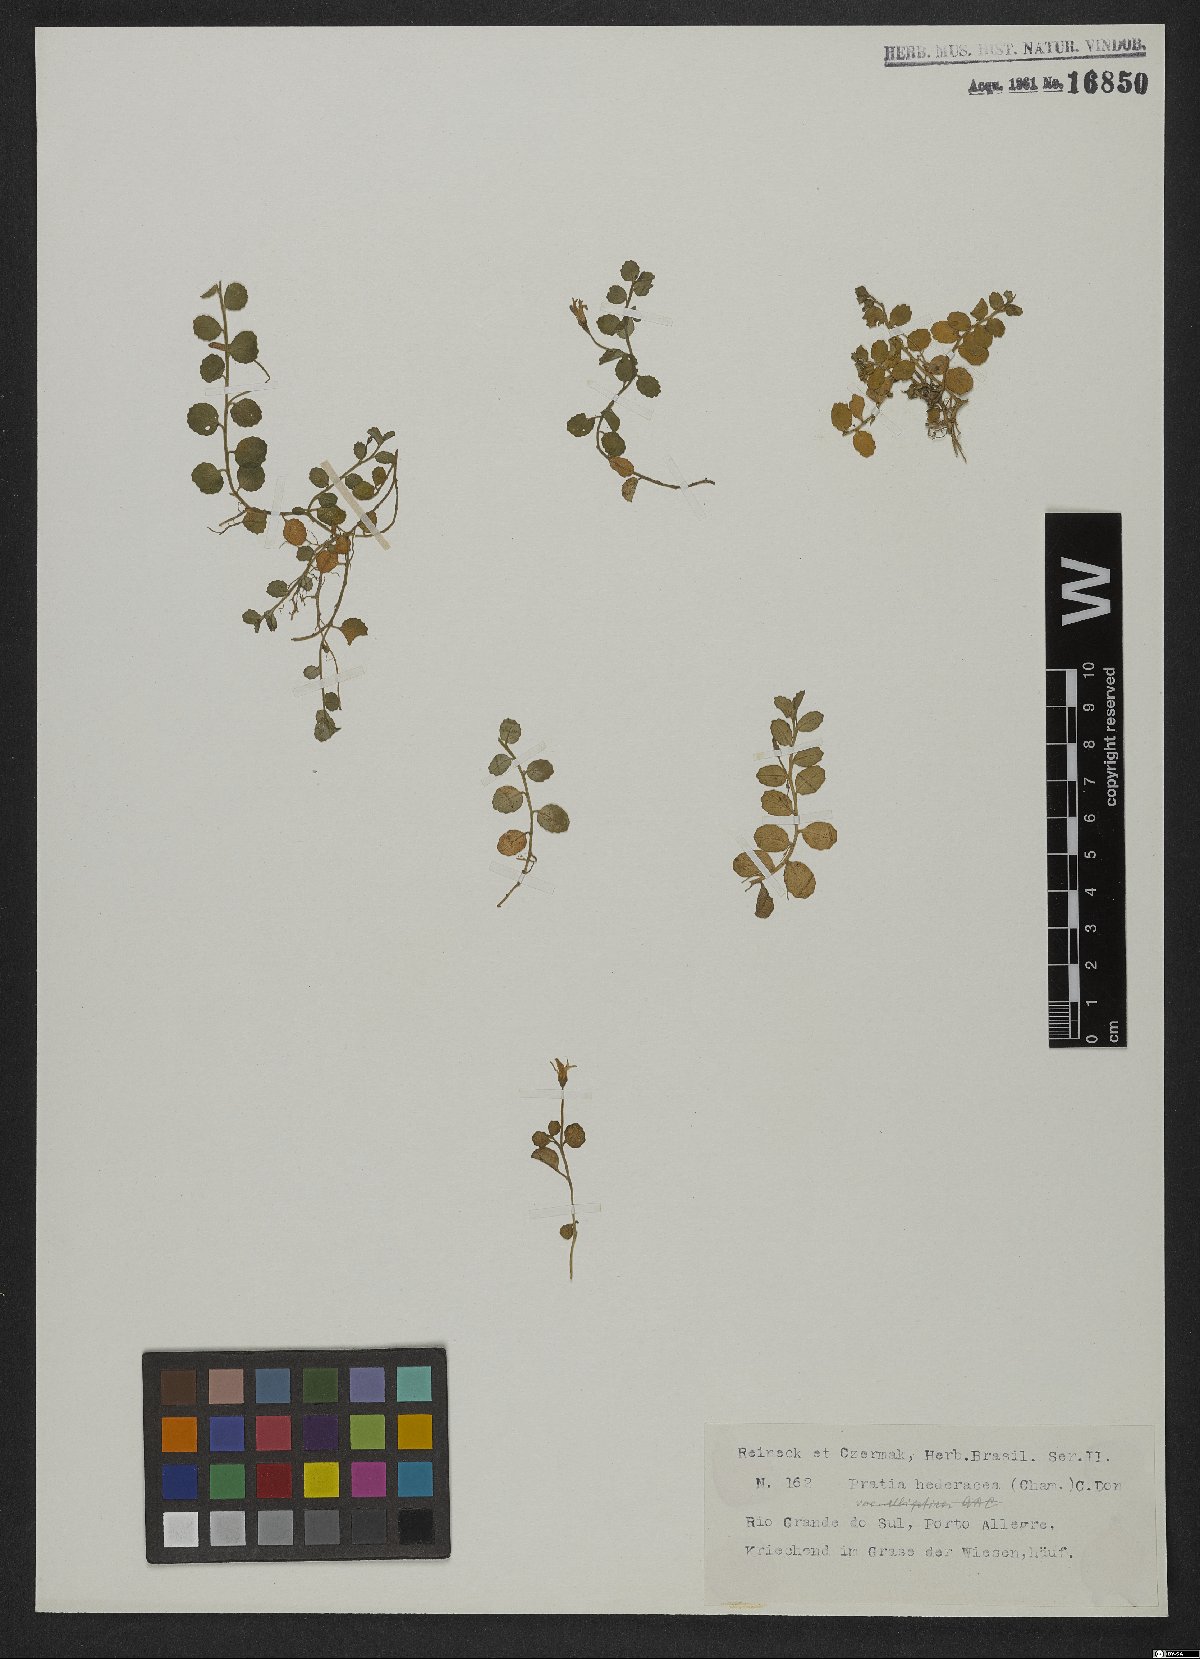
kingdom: Plantae
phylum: Tracheophyta
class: Magnoliopsida
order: Asterales
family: Campanulaceae
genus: Lobelia
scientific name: Lobelia hederacea
